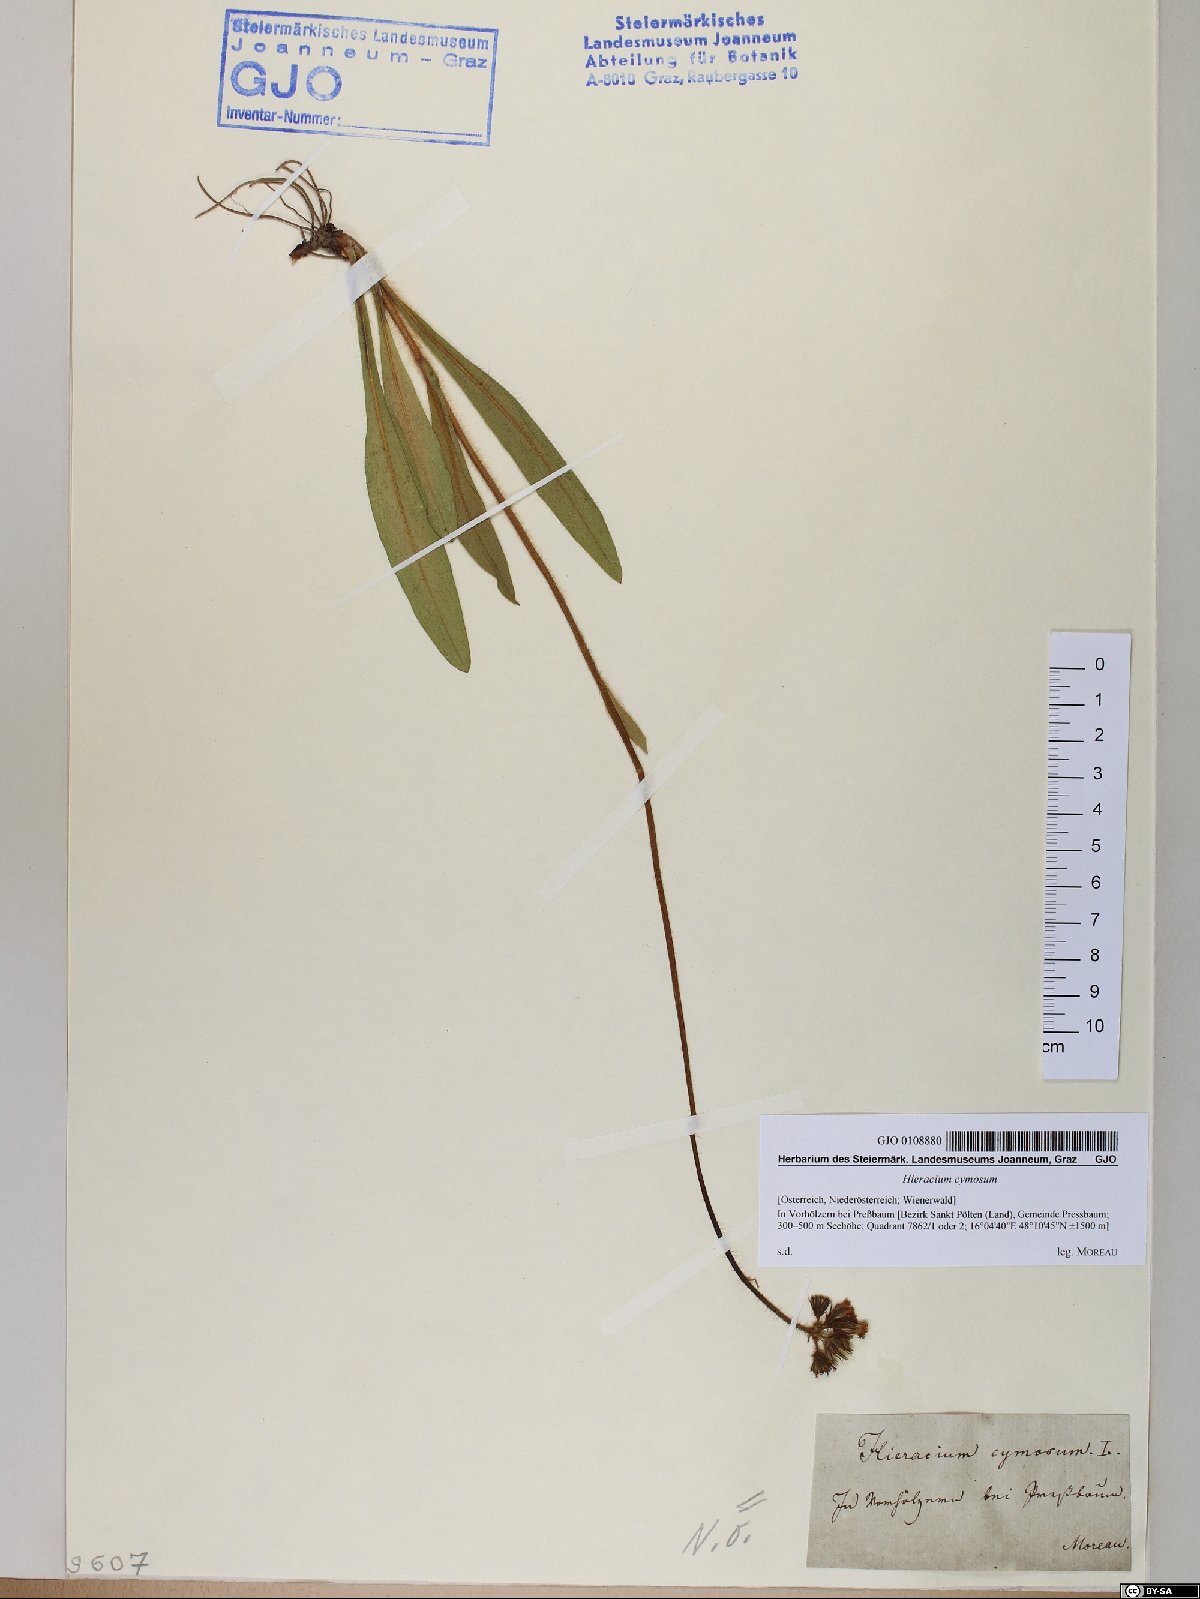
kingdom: Plantae
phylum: Tracheophyta
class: Magnoliopsida
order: Asterales
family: Asteraceae
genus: Pilosella
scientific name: Pilosella cymosa
